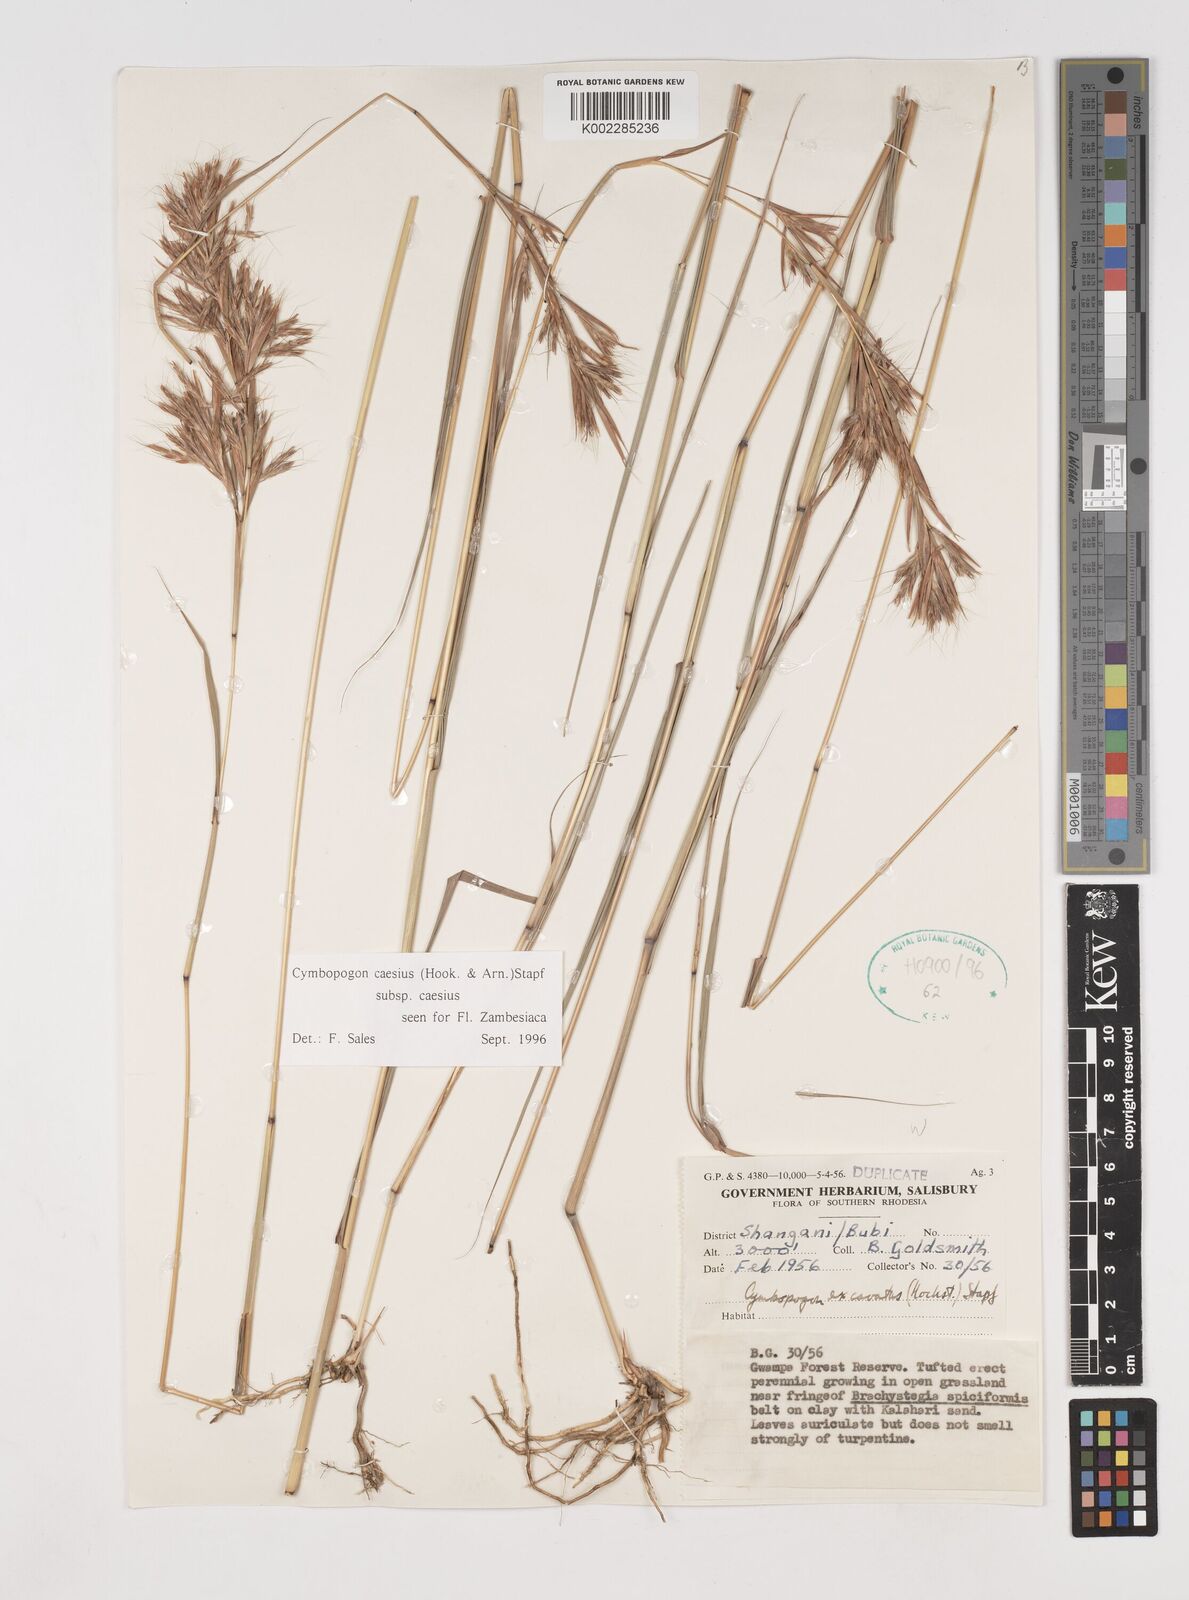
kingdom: Plantae
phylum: Tracheophyta
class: Liliopsida
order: Poales
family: Poaceae
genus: Cymbopogon
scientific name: Cymbopogon caesius
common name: Kachi grass
